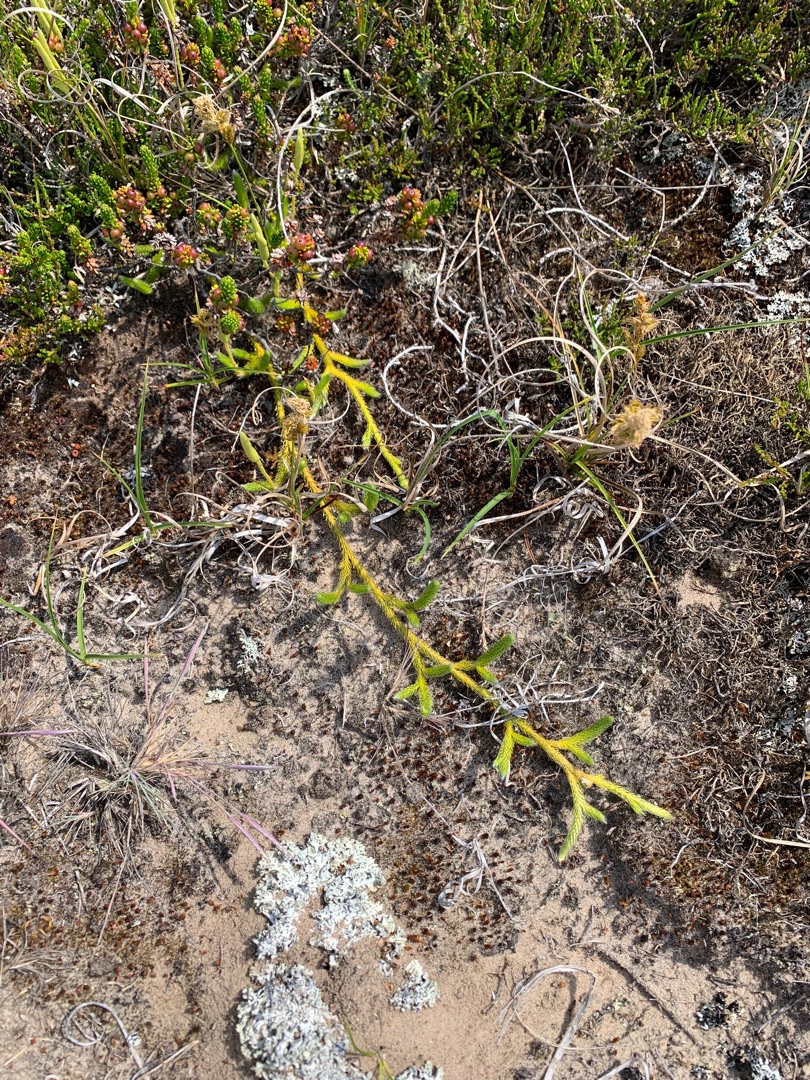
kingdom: Plantae
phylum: Tracheophyta
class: Lycopodiopsida
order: Lycopodiales
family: Lycopodiaceae
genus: Lycopodium
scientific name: Lycopodium clavatum
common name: Almindelig ulvefod
